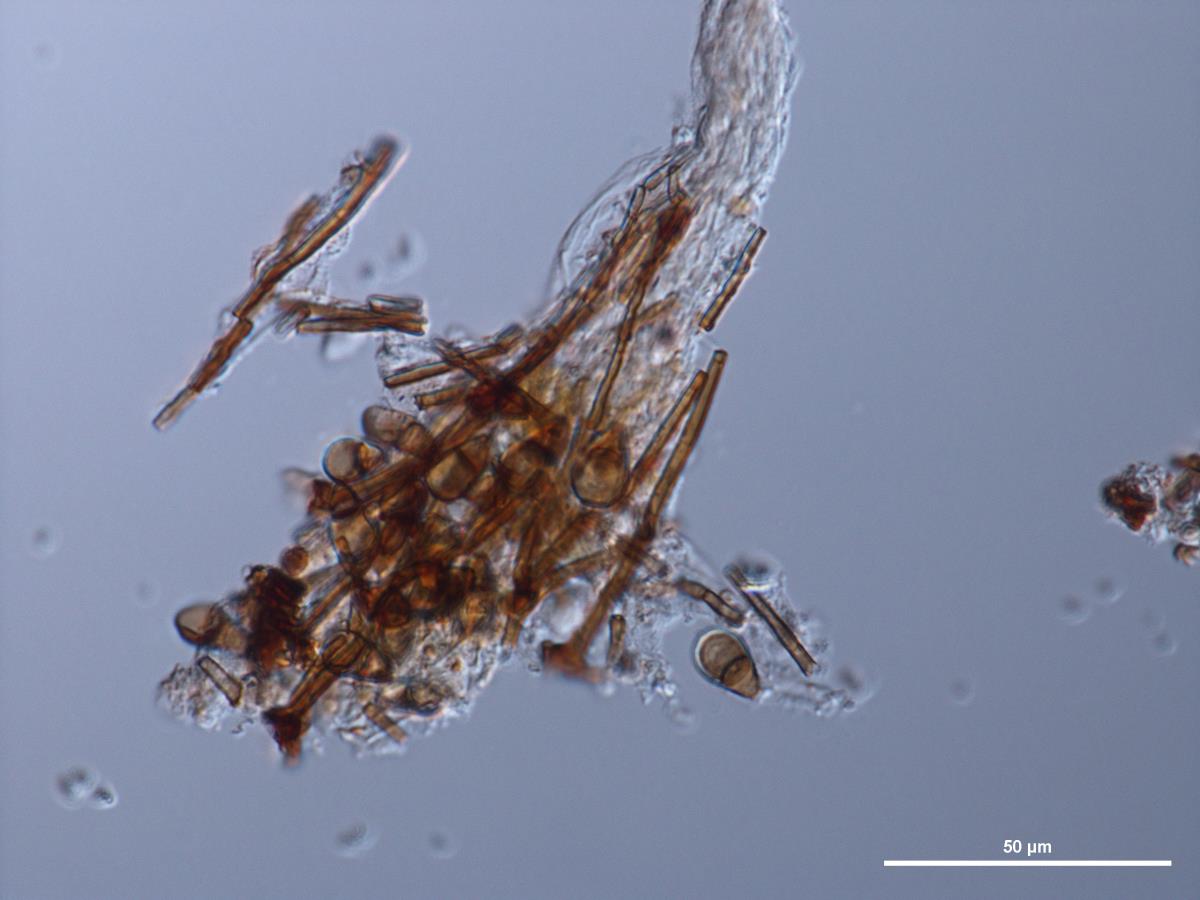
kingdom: Fungi
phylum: Ascomycota
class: Sordariomycetes
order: Sordariales
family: Helminthosphaeriaceae
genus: Endophragmiella
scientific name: Endophragmiella pinicola
